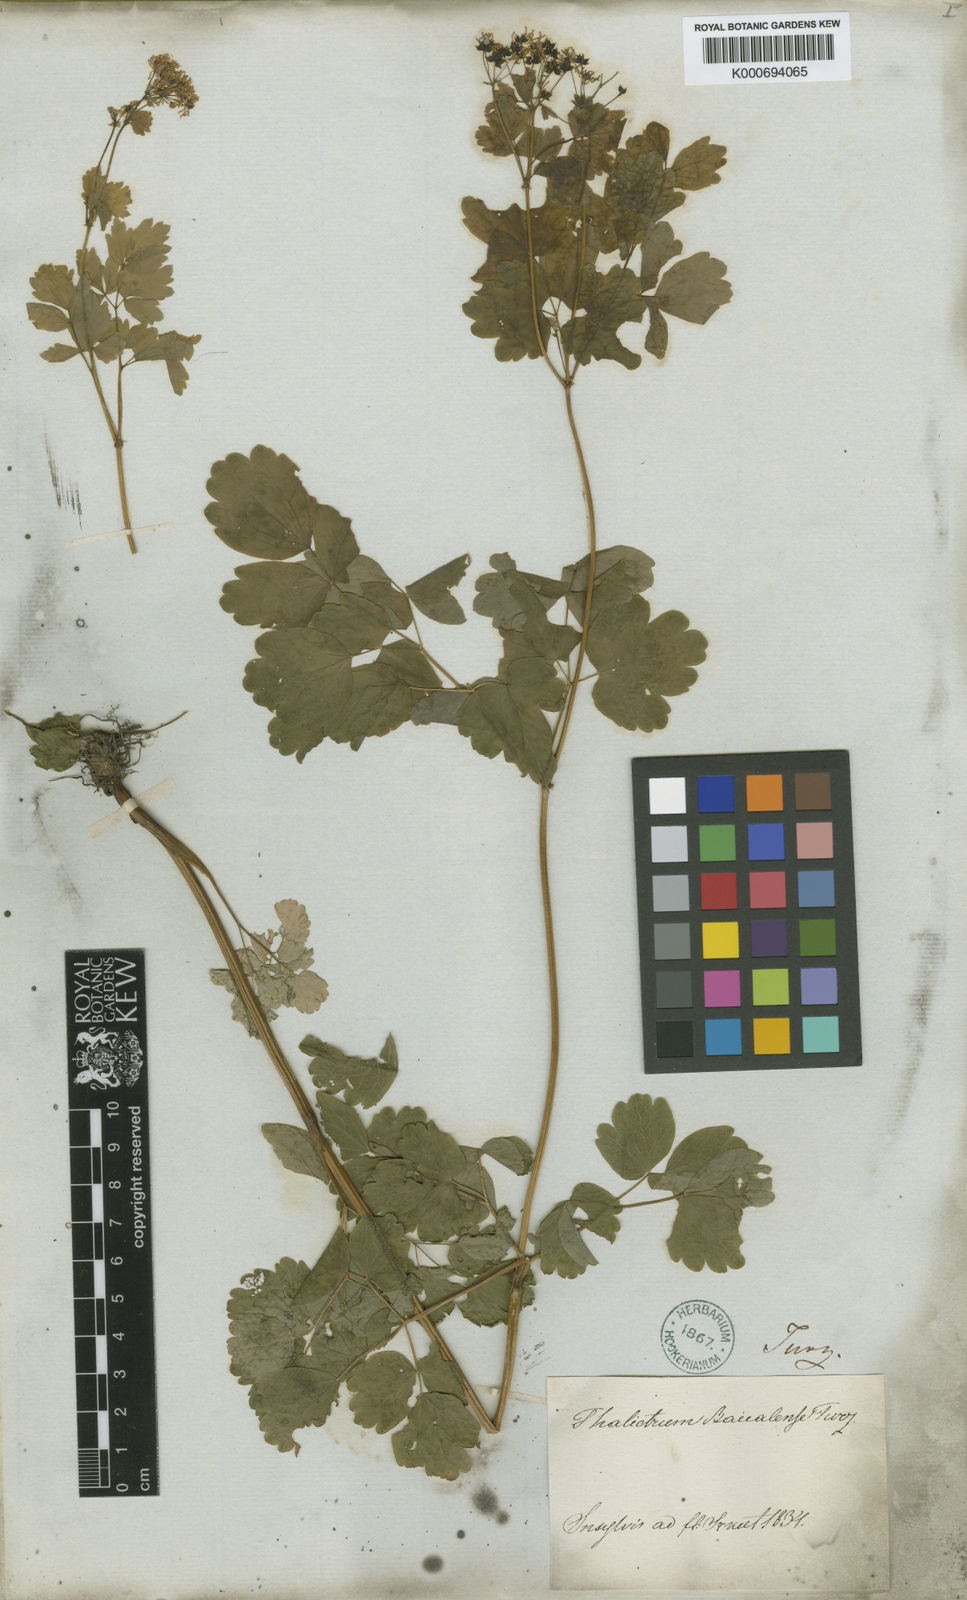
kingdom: Plantae
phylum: Tracheophyta
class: Magnoliopsida
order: Ranunculales
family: Ranunculaceae
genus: Thalictrum
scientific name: Thalictrum
